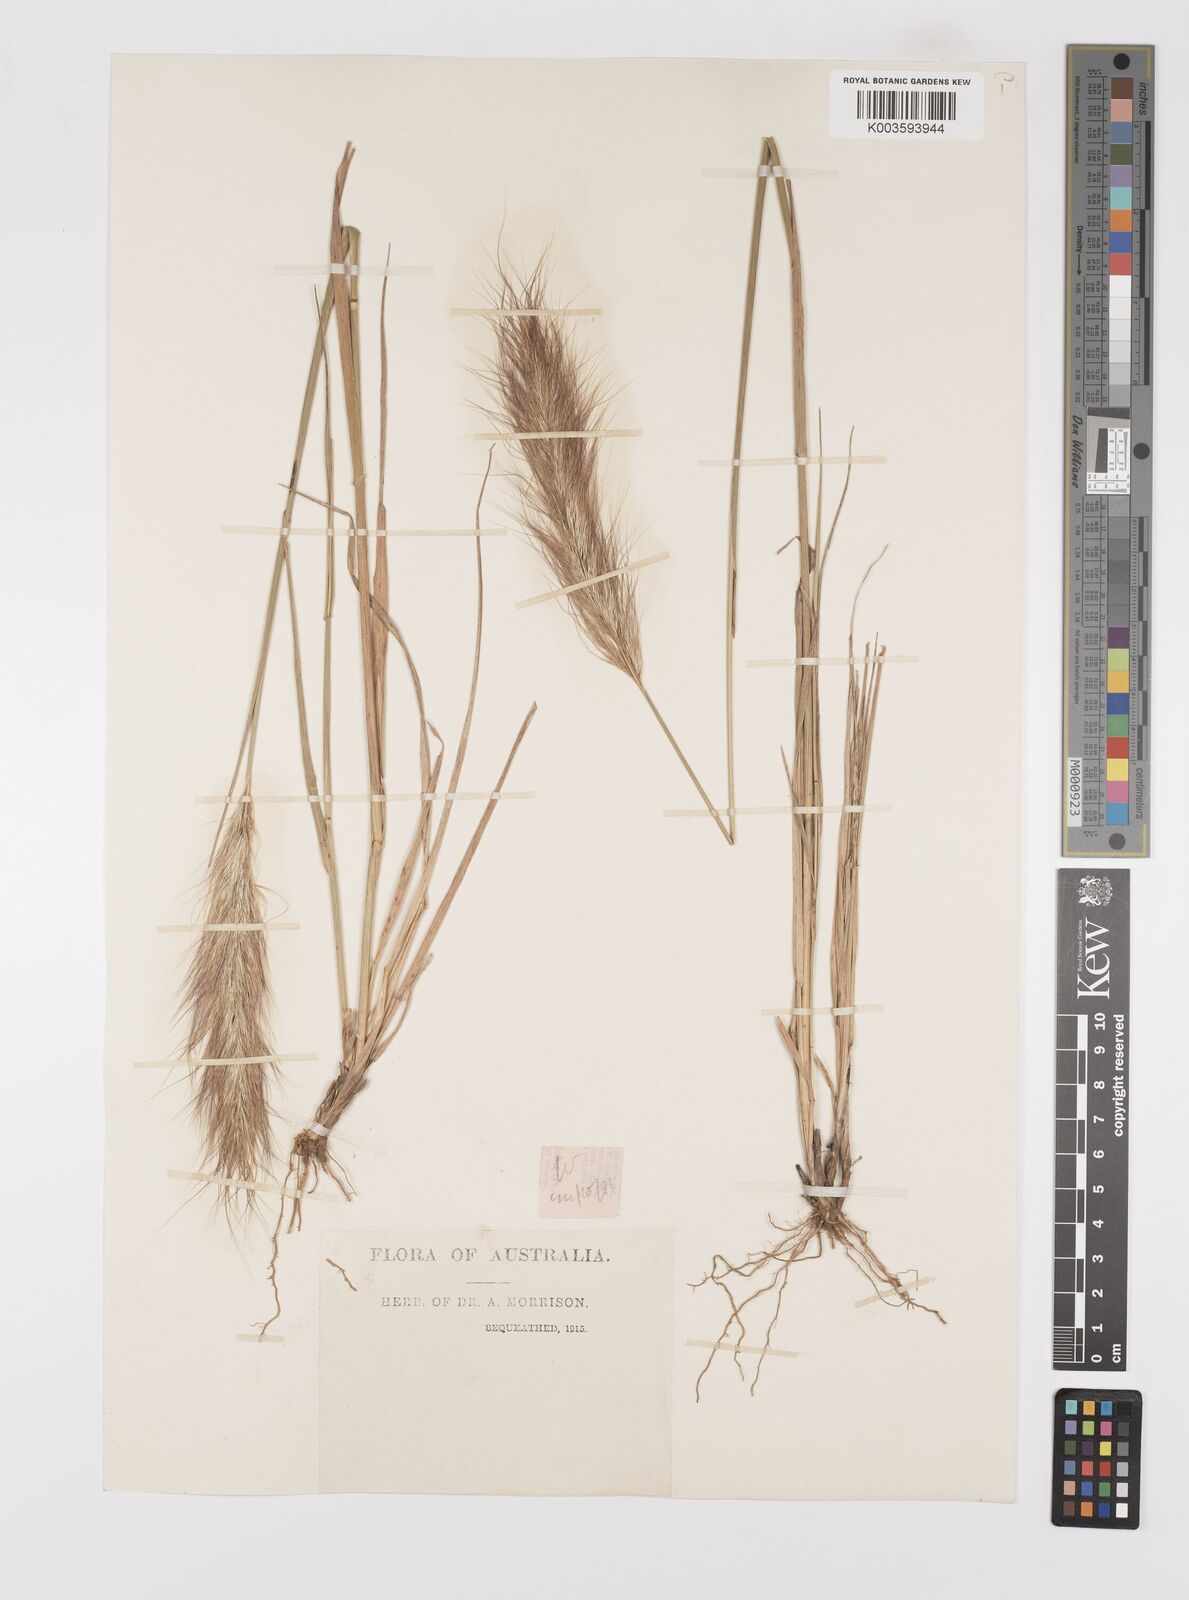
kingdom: Plantae
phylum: Tracheophyta
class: Liliopsida
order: Poales
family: Poaceae
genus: Dichelachne
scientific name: Dichelachne crinita
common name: Clovenfoot plumegrass
